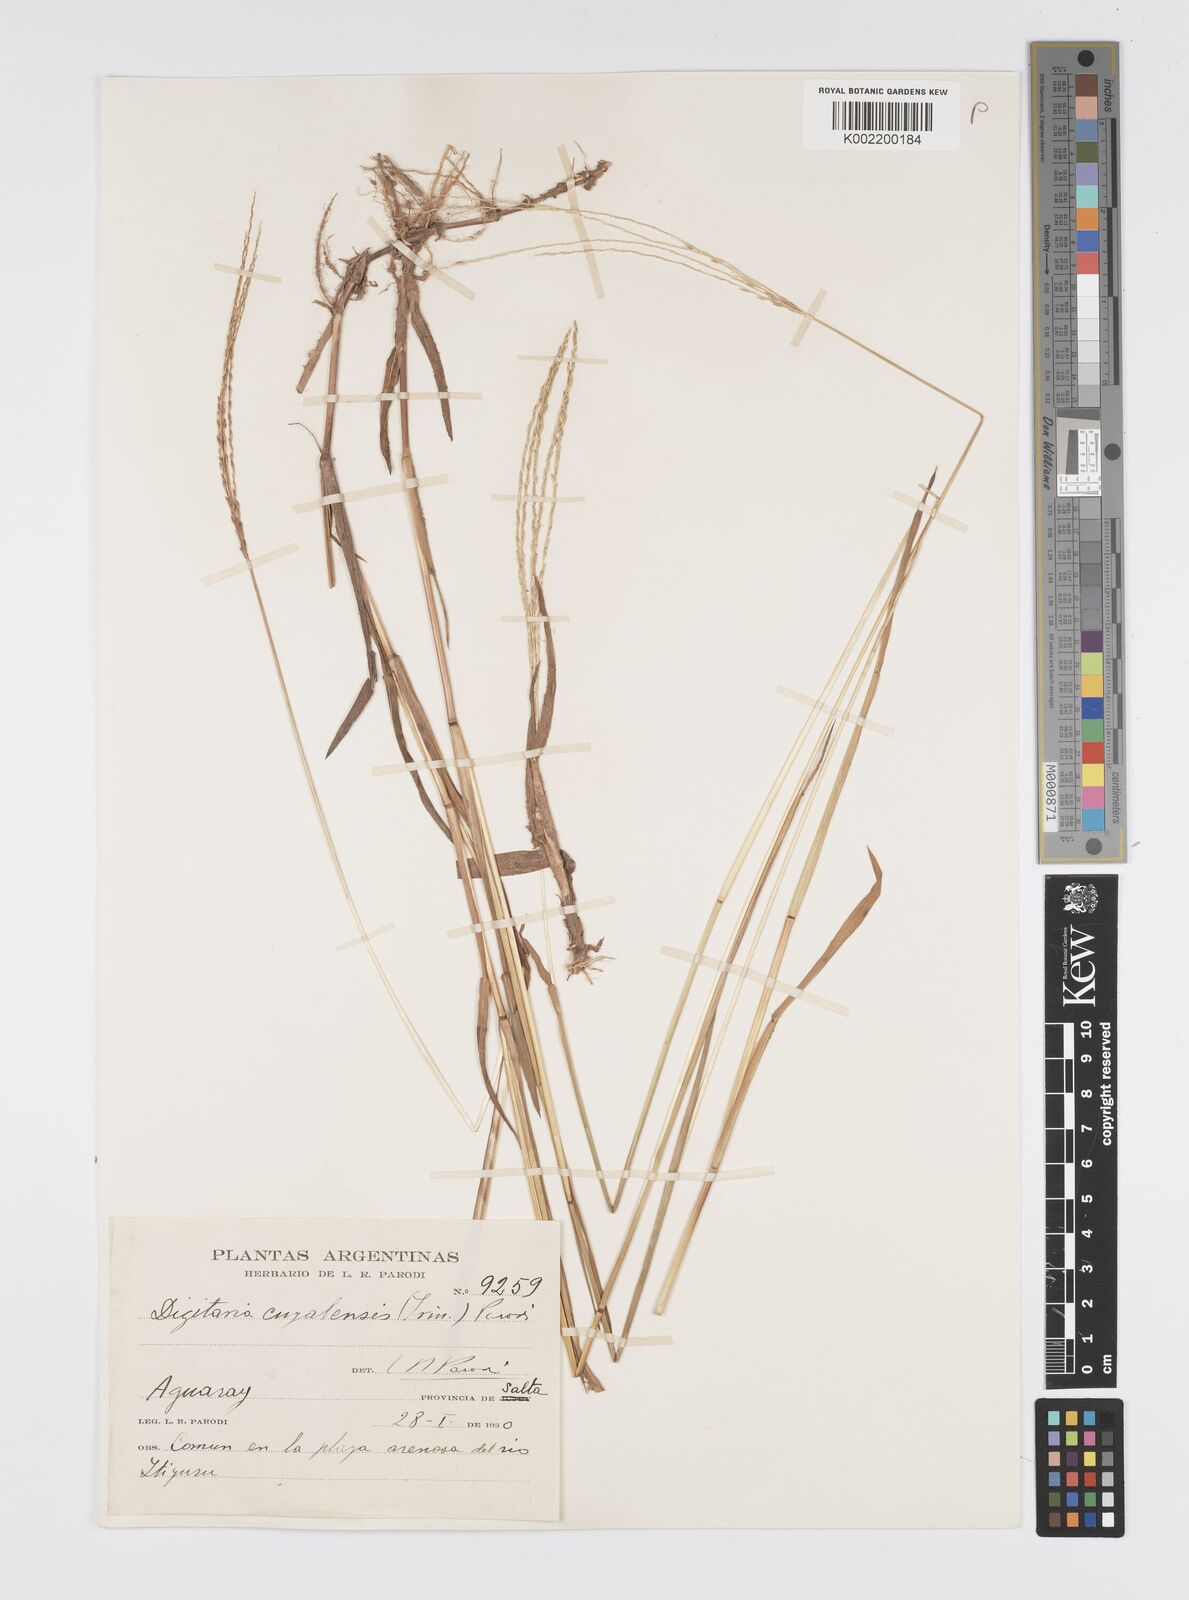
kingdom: Plantae
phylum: Tracheophyta
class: Liliopsida
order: Poales
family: Poaceae
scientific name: Poaceae
